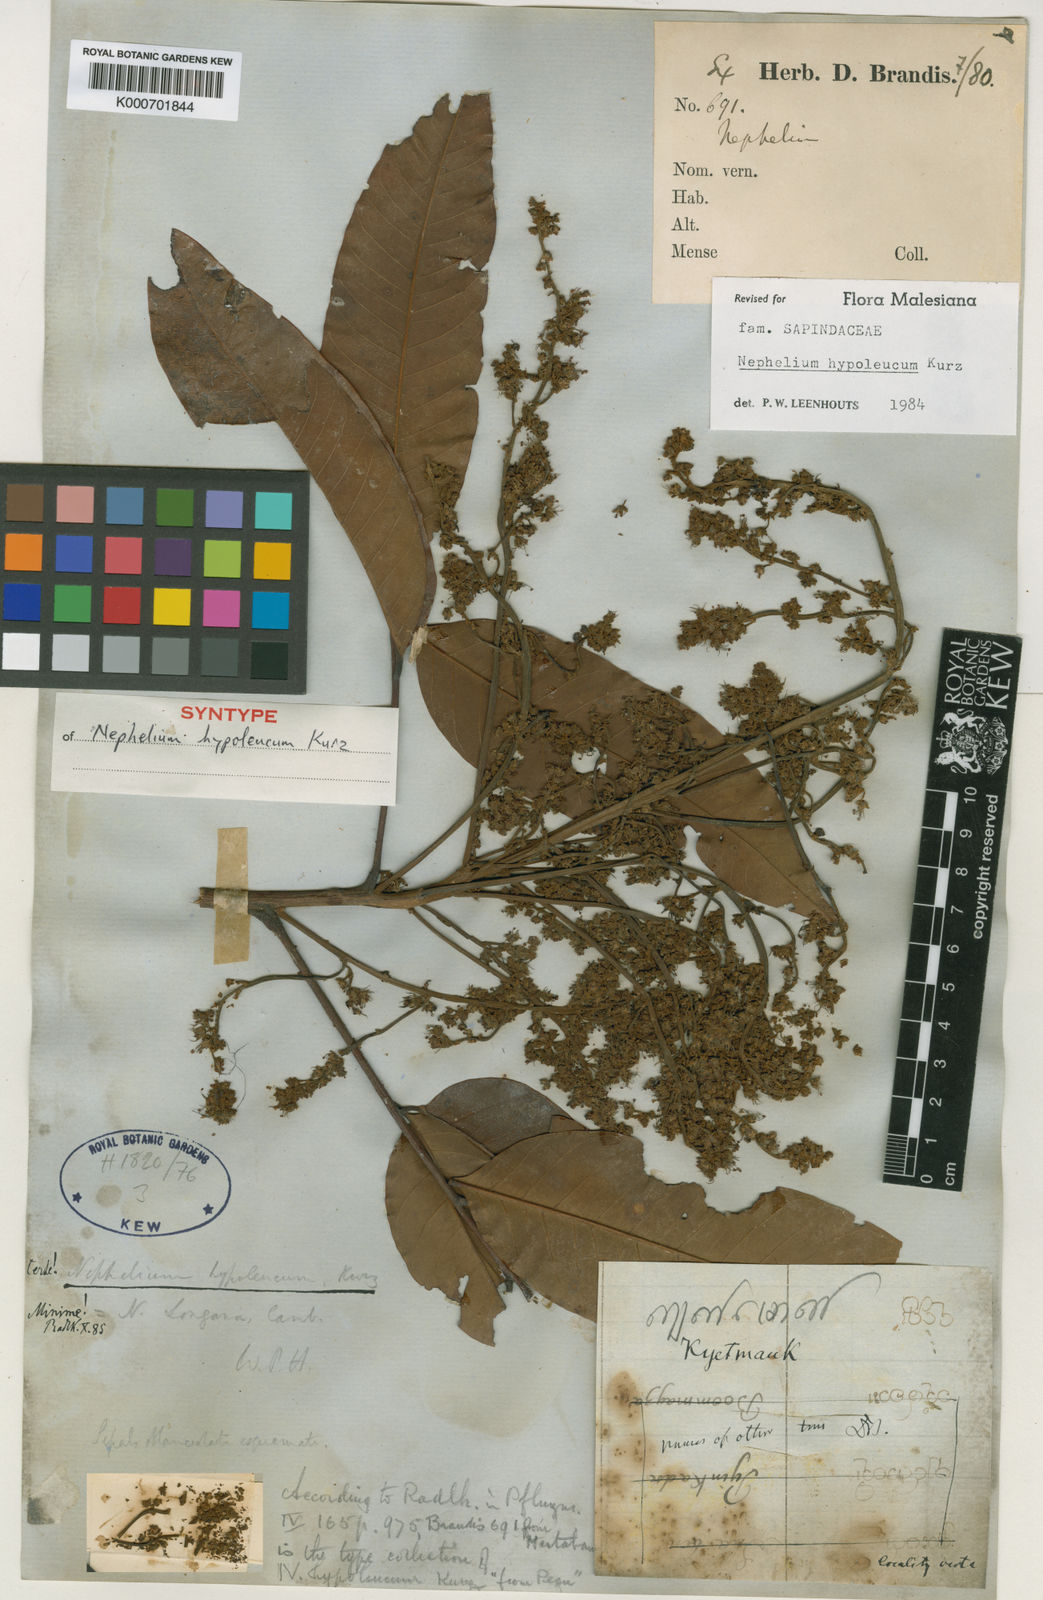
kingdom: Plantae
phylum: Tracheophyta
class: Magnoliopsida
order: Sapindales
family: Sapindaceae
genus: Nephelium
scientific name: Nephelium hypoleucum
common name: Korlan
